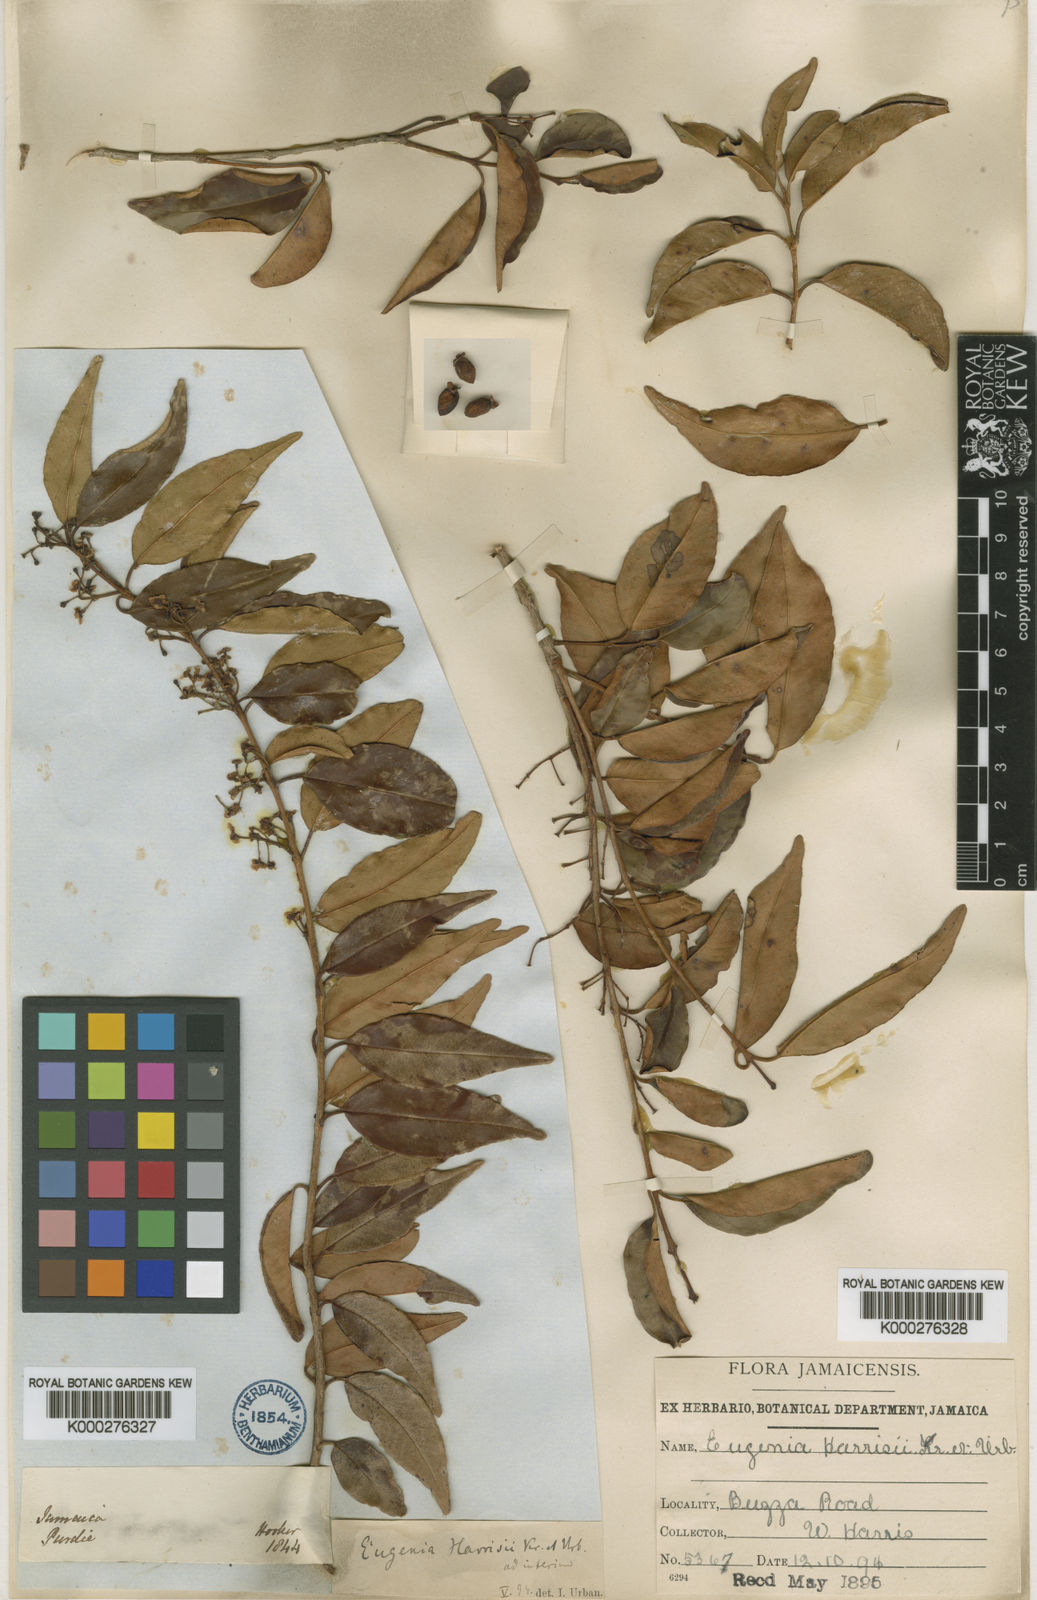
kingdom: Plantae
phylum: Tracheophyta
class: Magnoliopsida
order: Myrtales
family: Myrtaceae
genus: Eugenia
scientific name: Eugenia harrisii
